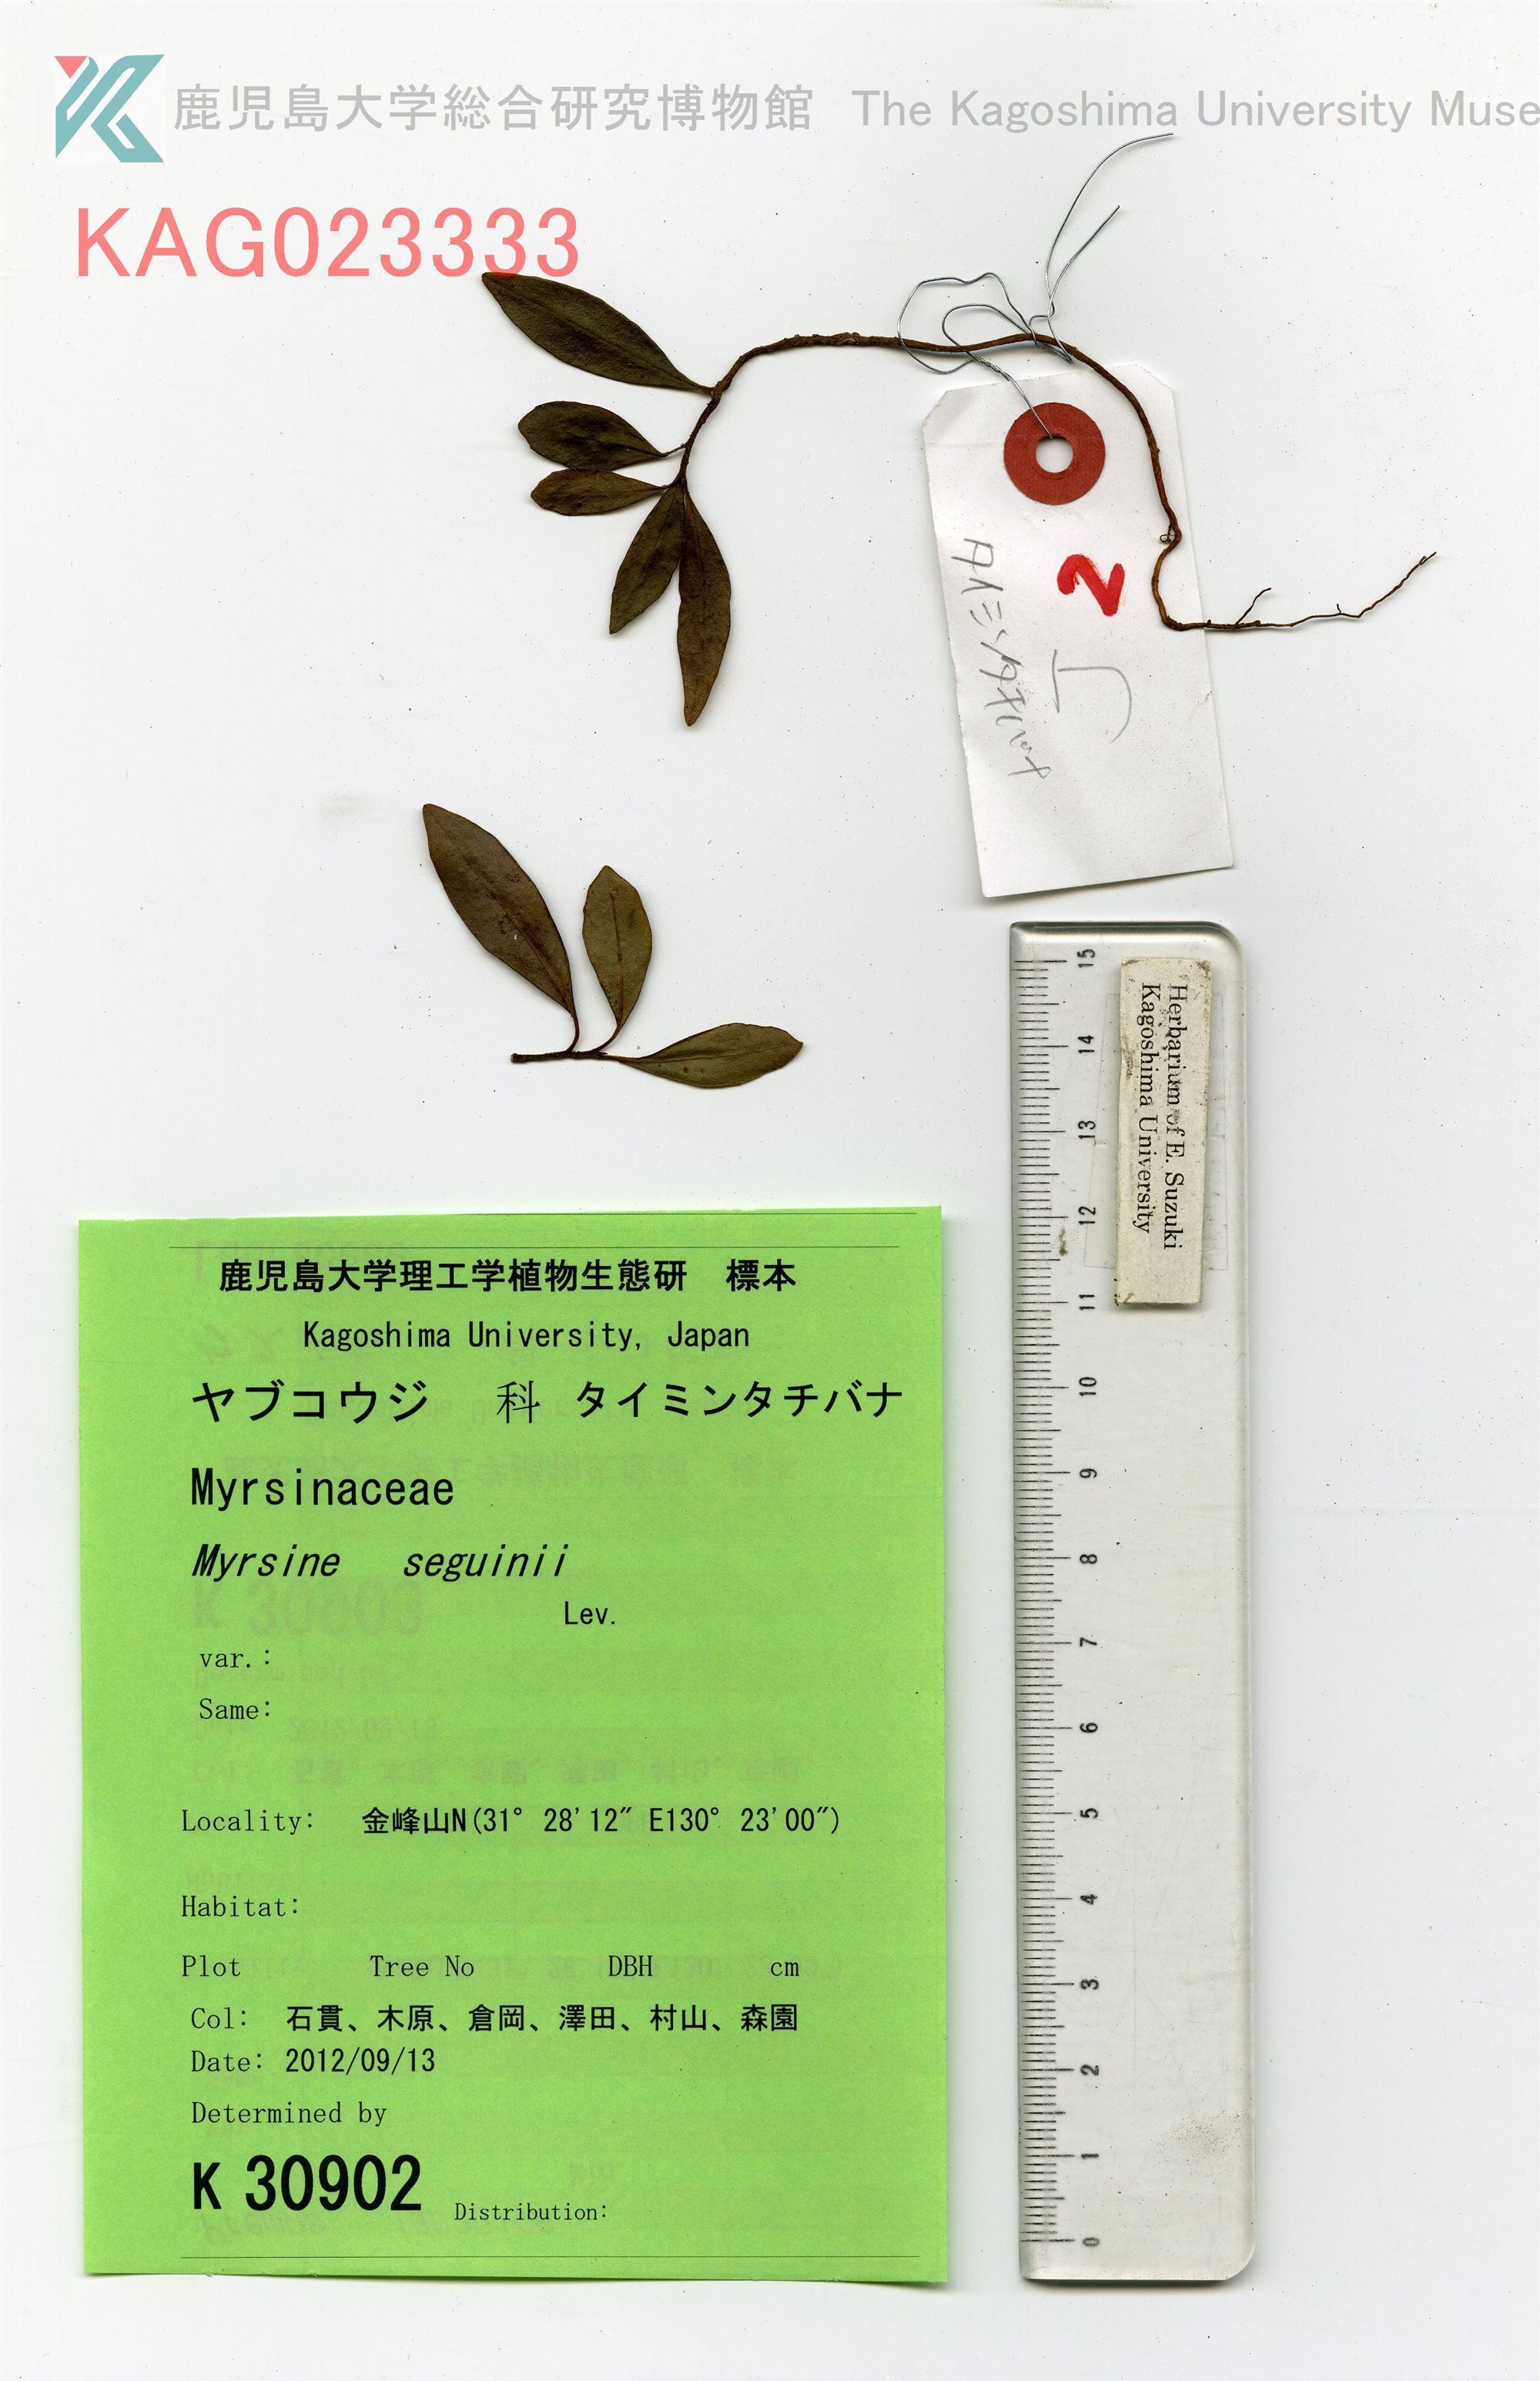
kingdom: Plantae
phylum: Tracheophyta
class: Magnoliopsida
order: Ericales
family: Primulaceae
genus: Myrsine
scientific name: Myrsine seguinii
